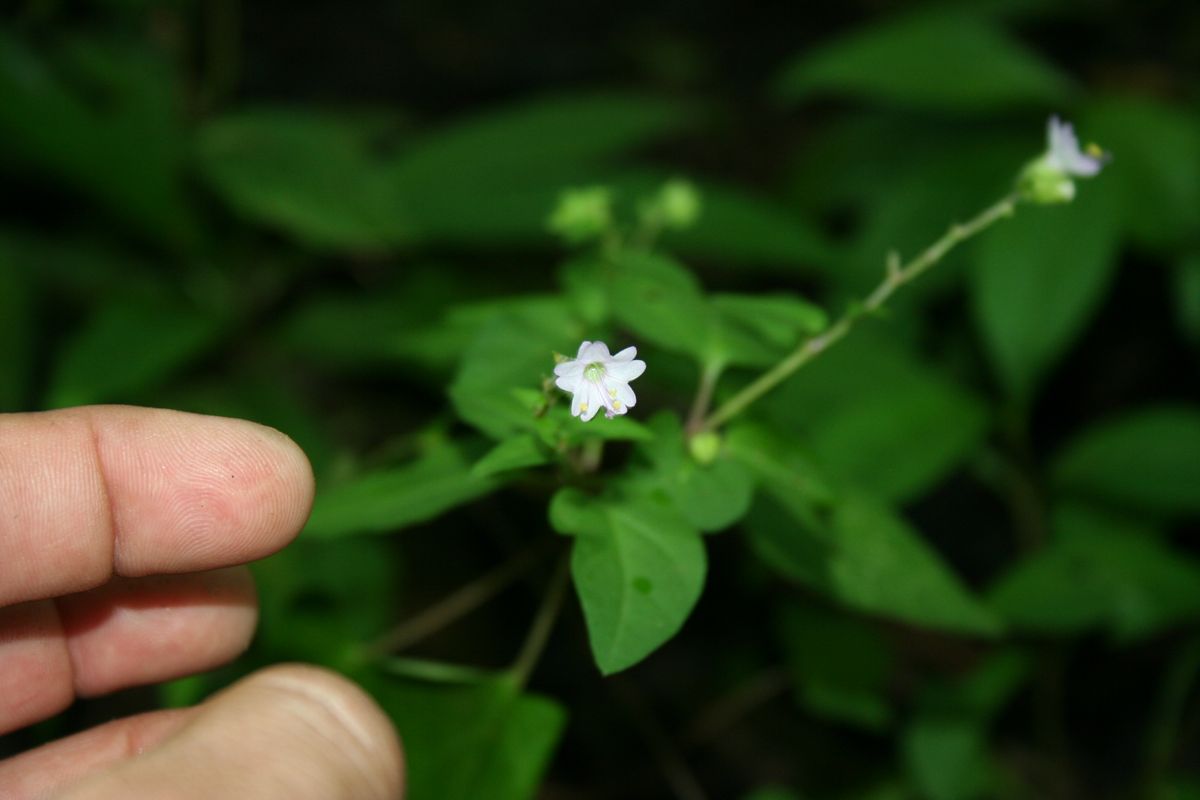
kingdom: Plantae
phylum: Tracheophyta
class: Magnoliopsida
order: Caryophyllales
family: Nyctaginaceae
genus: Mirabilis
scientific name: Mirabilis violacea
